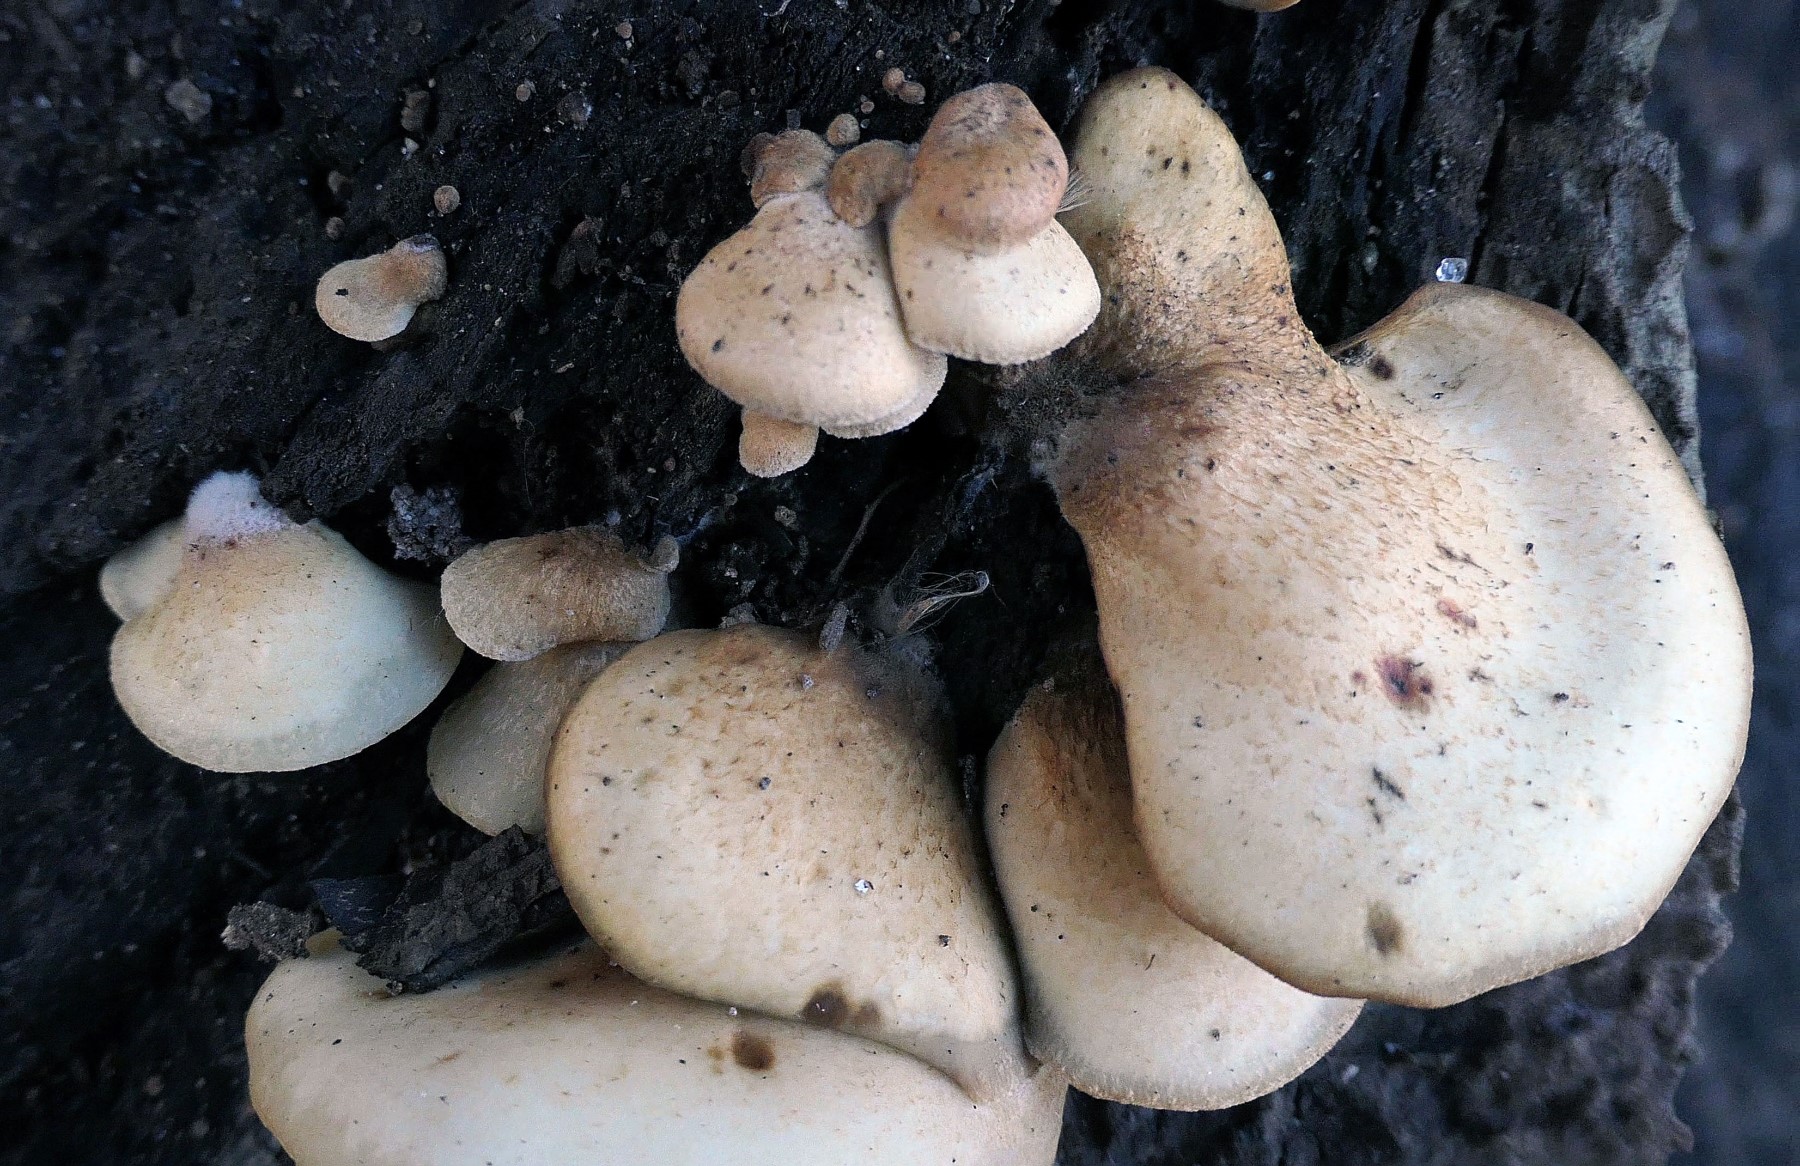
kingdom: Fungi
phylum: Basidiomycota
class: Agaricomycetes
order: Agaricales
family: Crepidotaceae
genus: Crepidotus
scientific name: Crepidotus calolepis
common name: småskællet muslingesvamp
